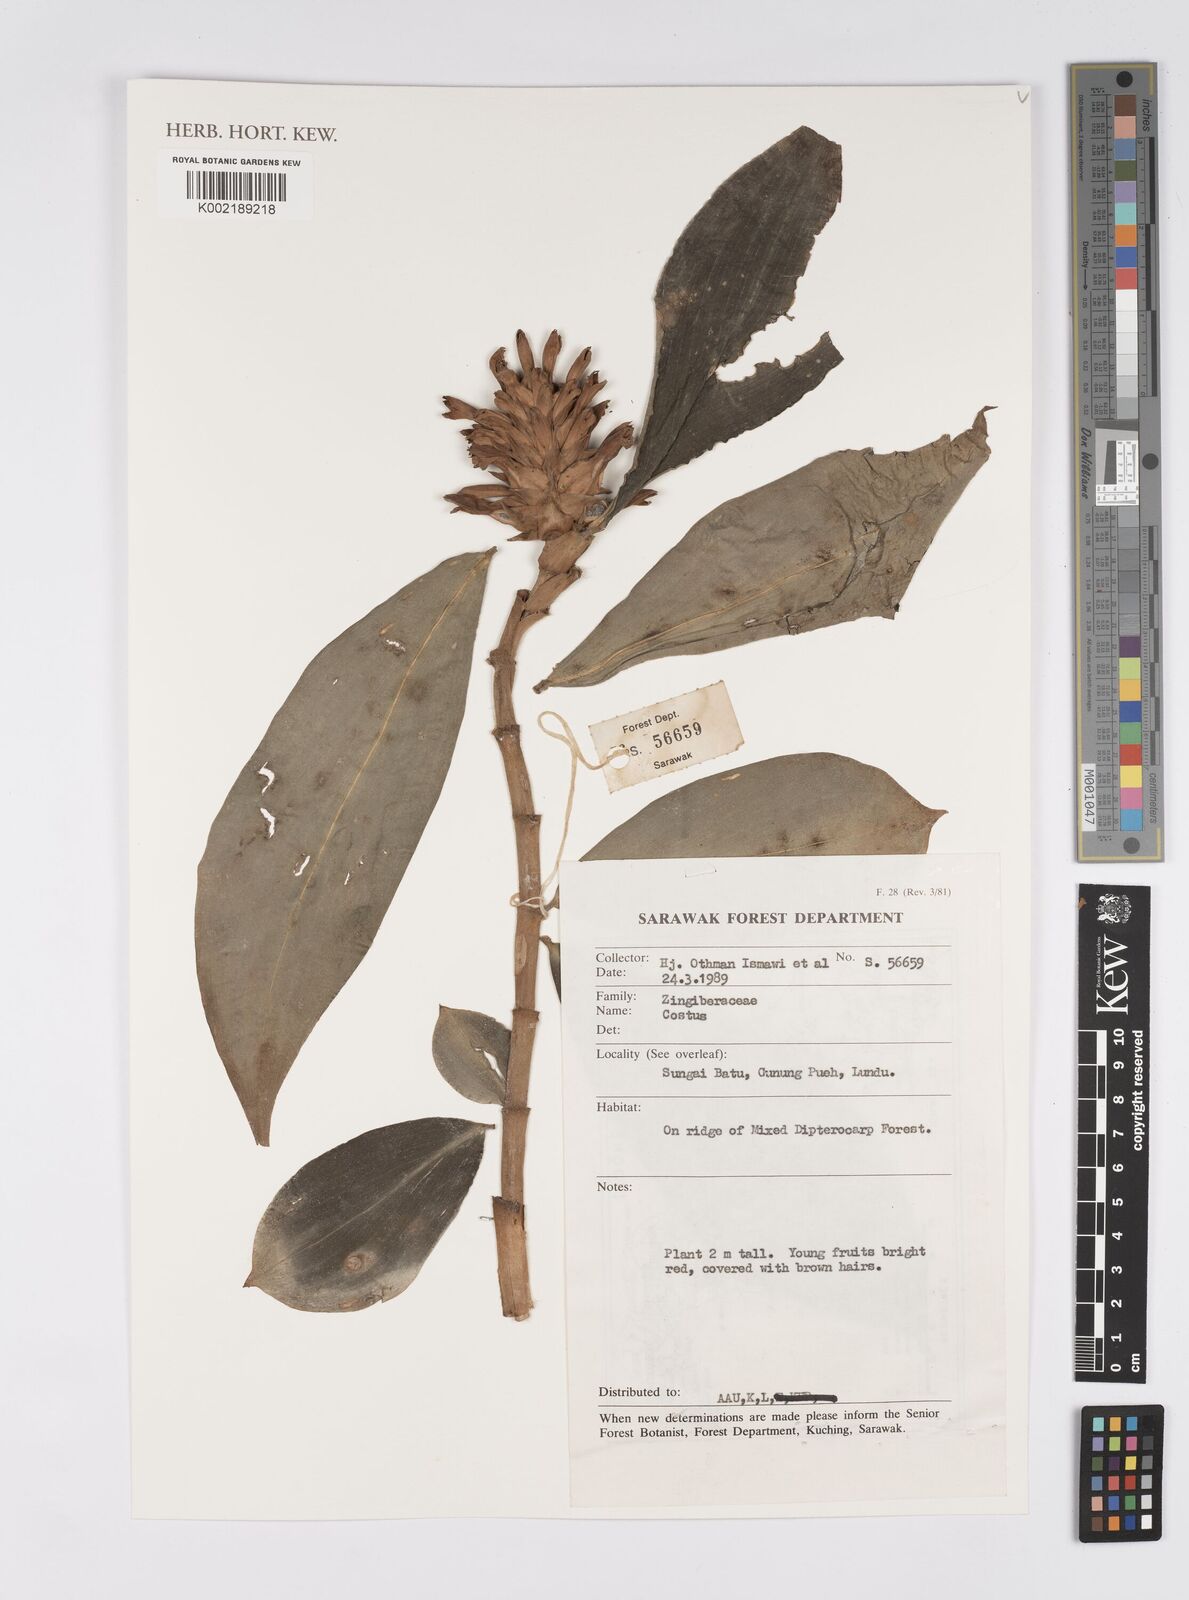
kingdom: Plantae
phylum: Tracheophyta
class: Liliopsida
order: Zingiberales
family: Costaceae
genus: Costus
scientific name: Costus
